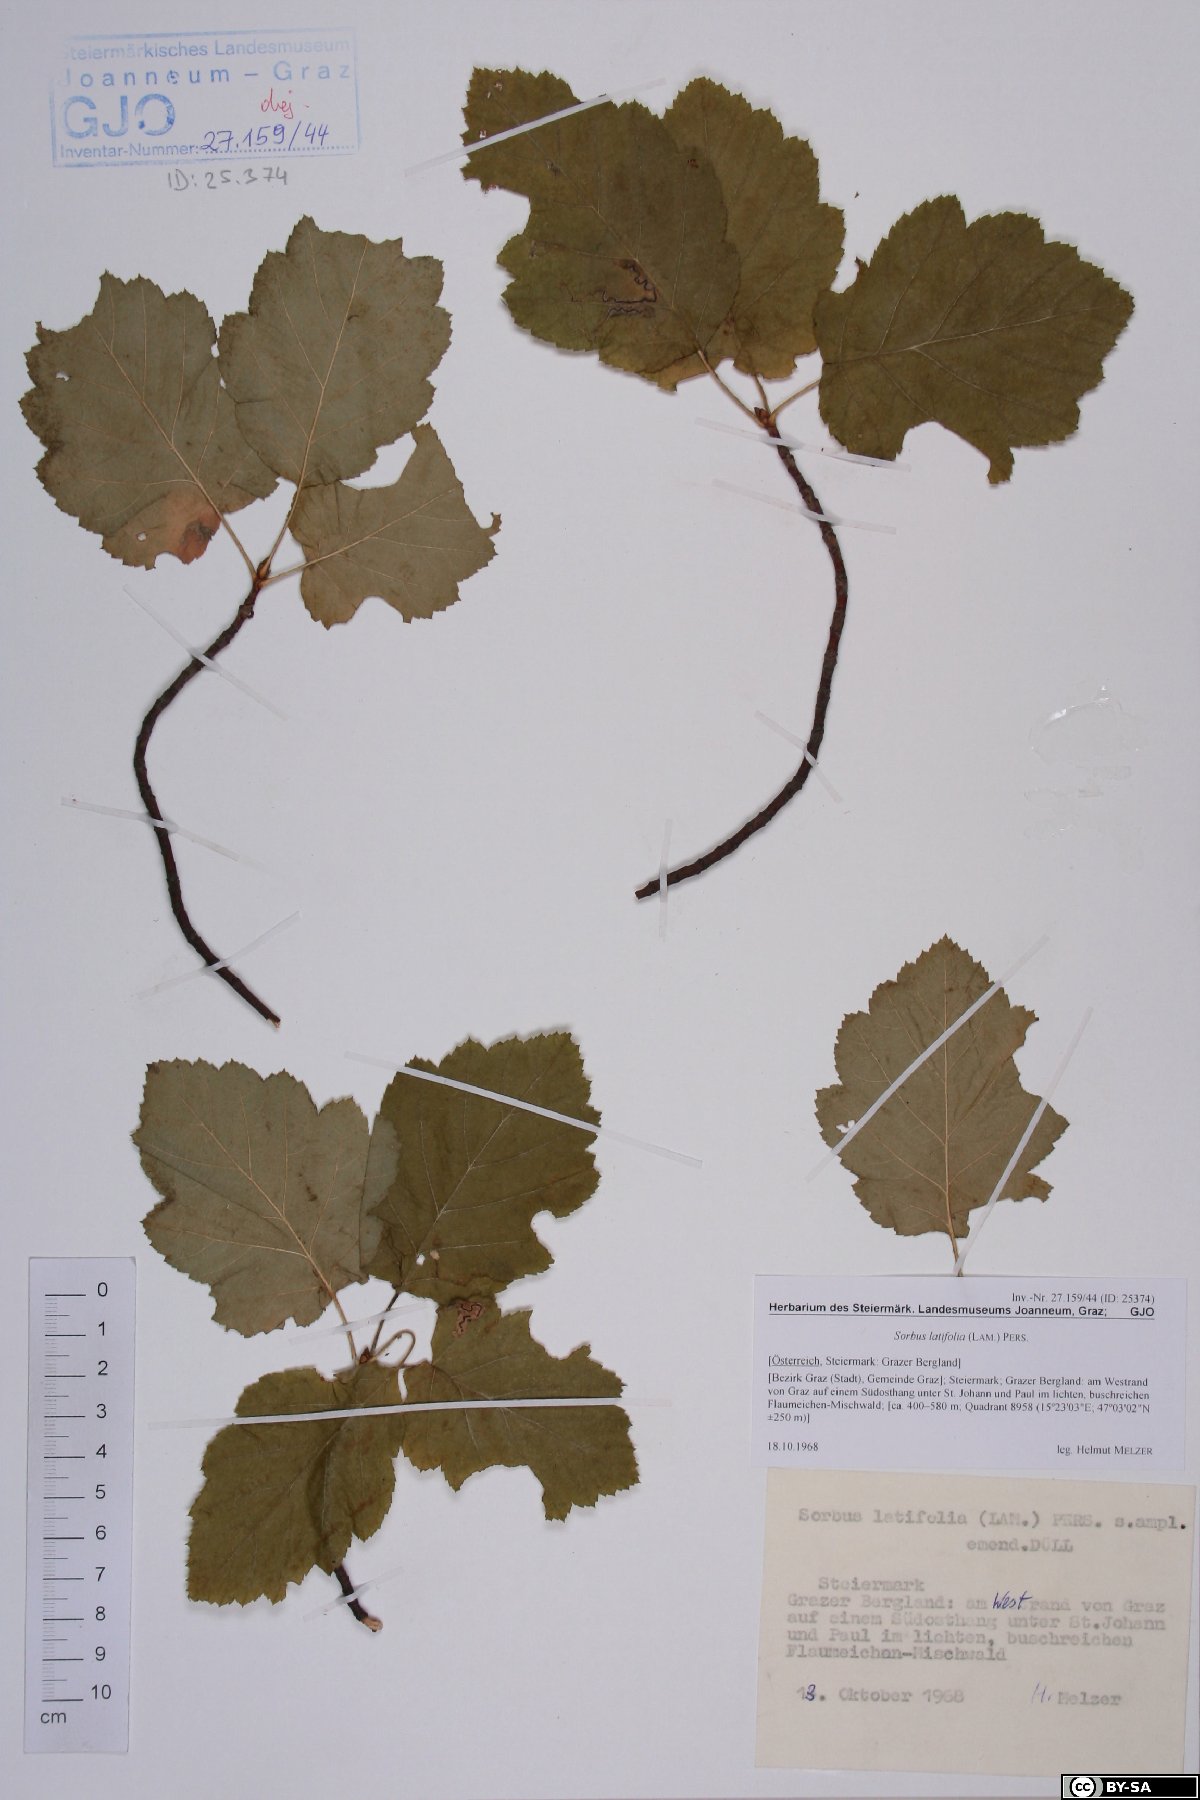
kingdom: Plantae
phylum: Tracheophyta
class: Magnoliopsida
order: Rosales
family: Rosaceae
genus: Karpatiosorbus
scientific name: Karpatiosorbus latifolia
